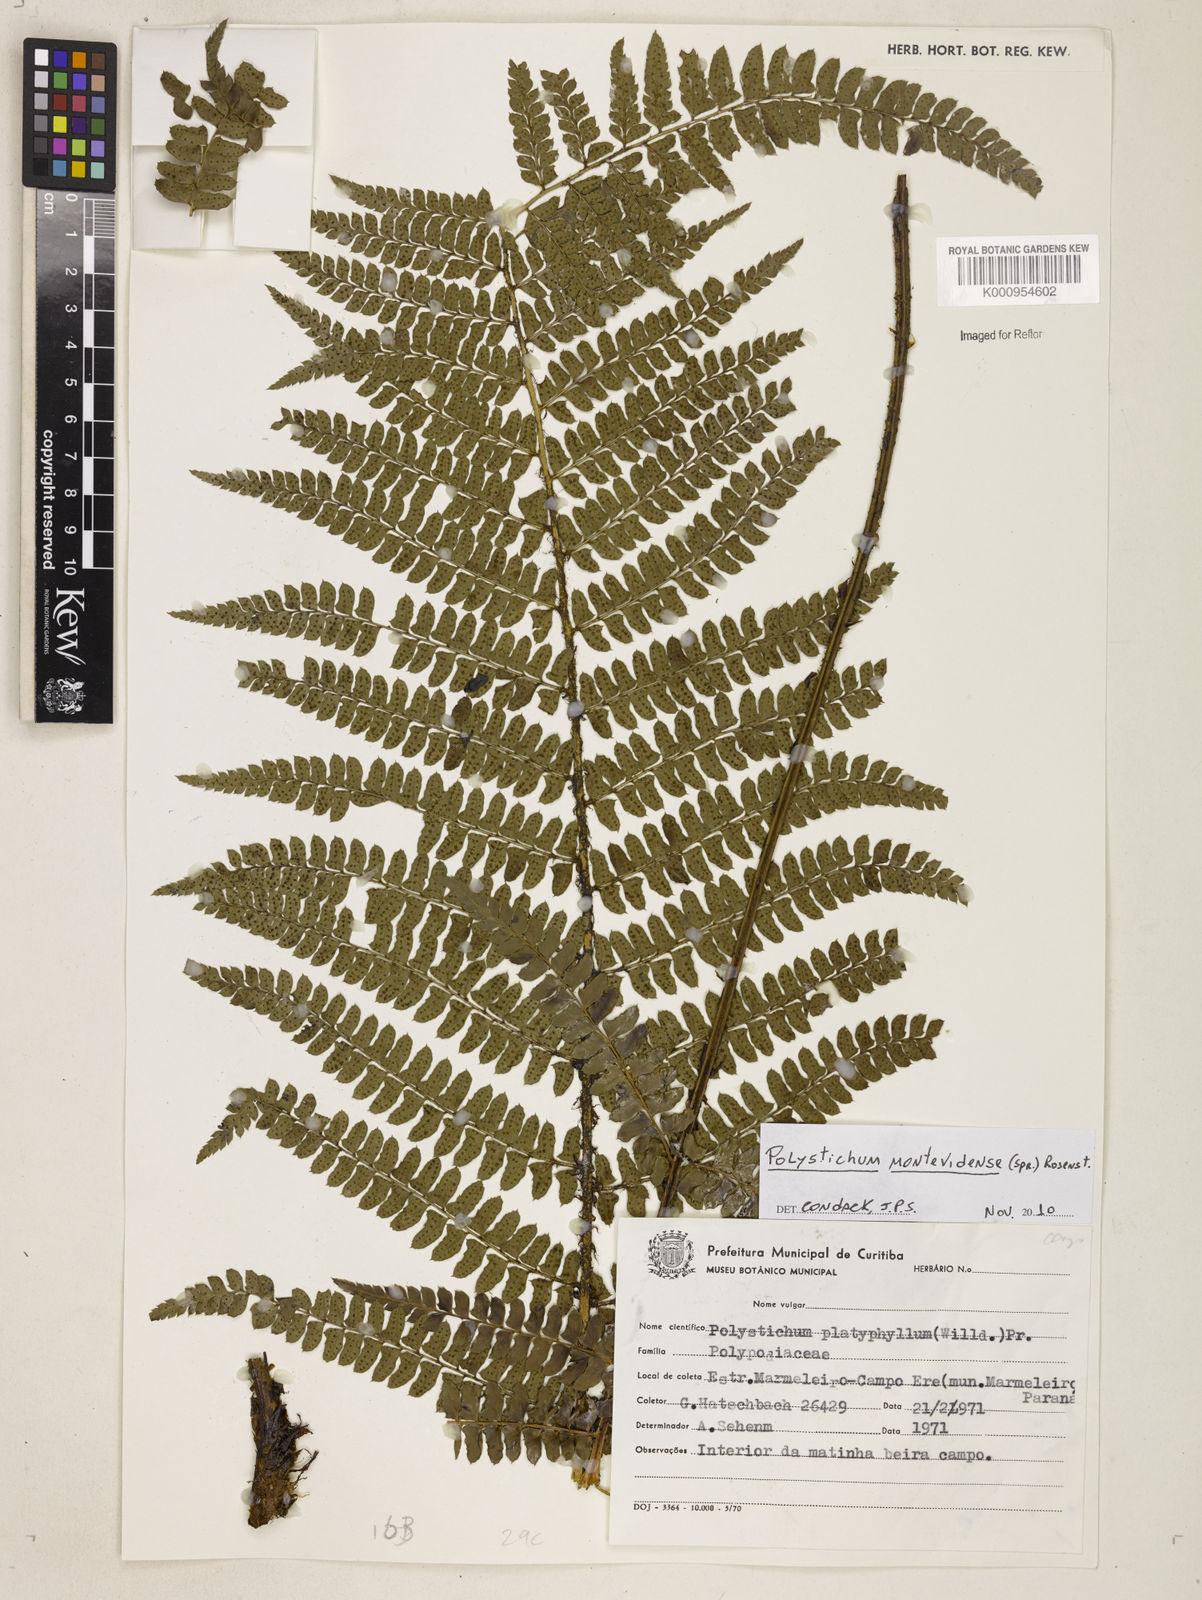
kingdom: Plantae
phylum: Tracheophyta
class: Polypodiopsida
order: Polypodiales
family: Dryopteridaceae
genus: Polystichum
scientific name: Polystichum montevidense
